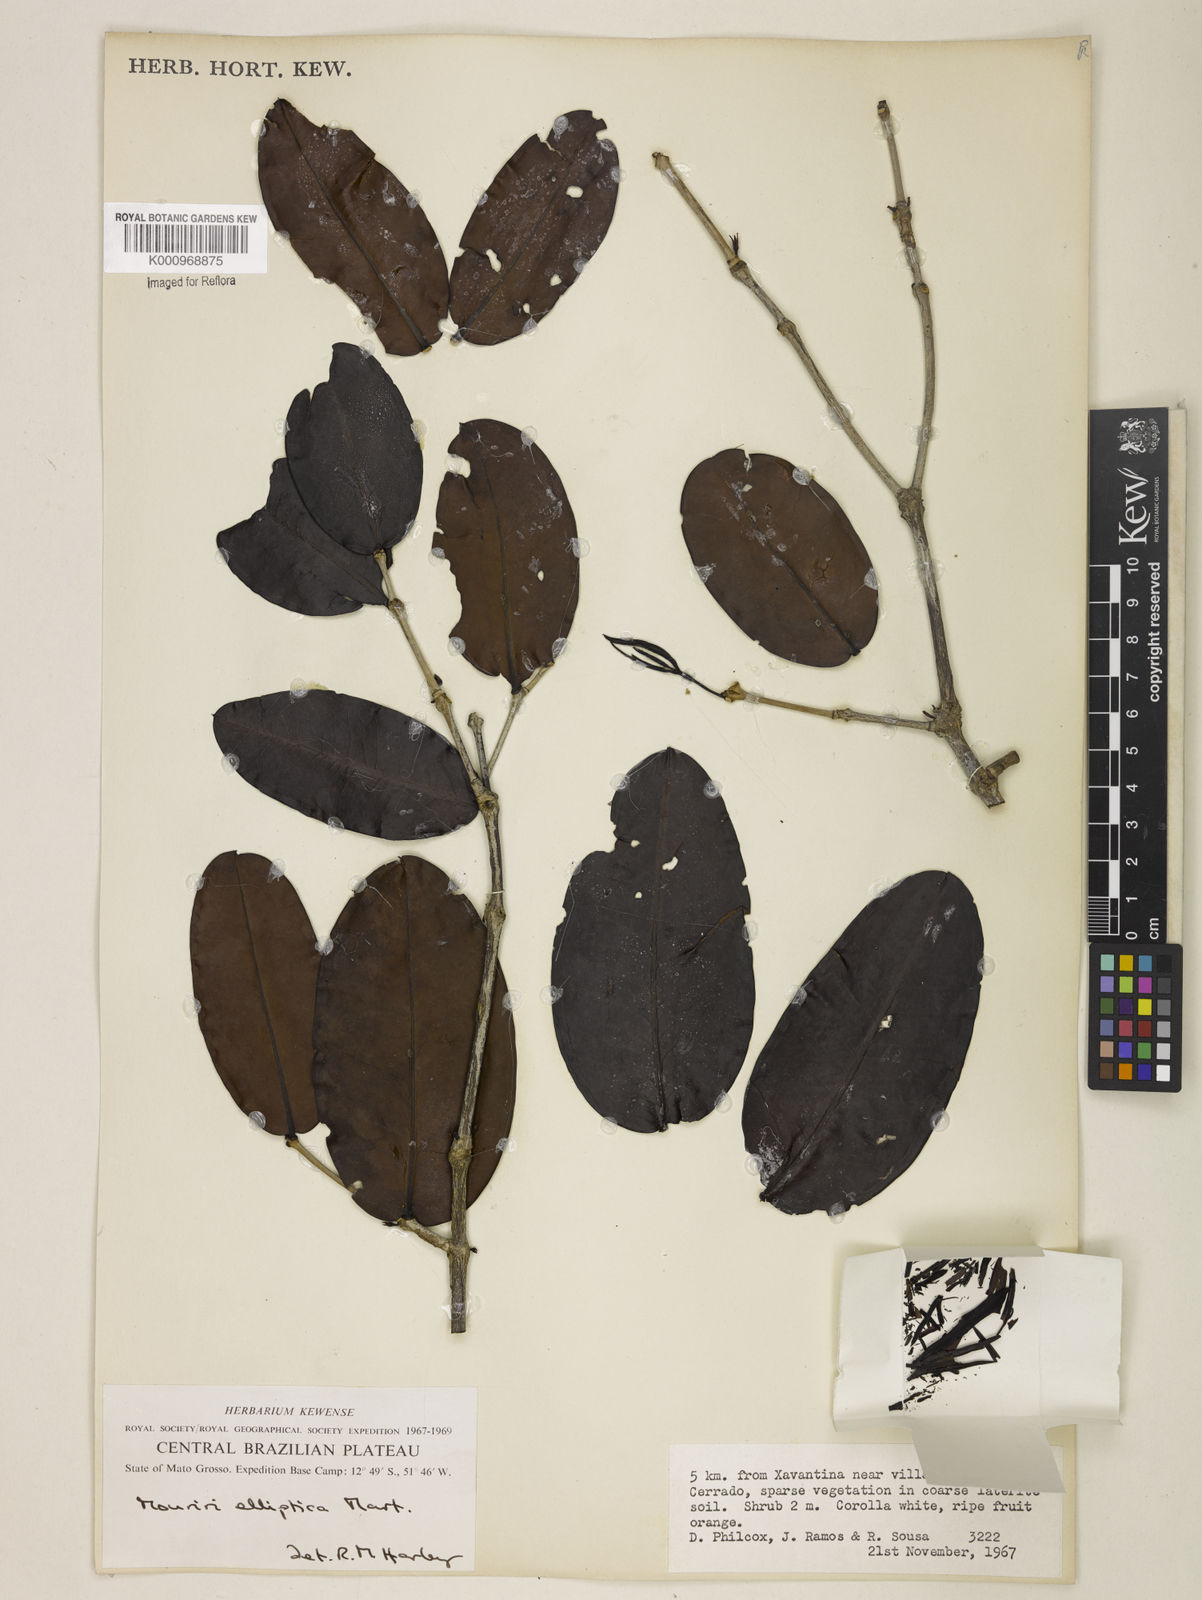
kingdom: Plantae
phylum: Tracheophyta
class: Magnoliopsida
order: Myrtales
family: Melastomataceae
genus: Mouriri
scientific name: Mouriri elliptica
